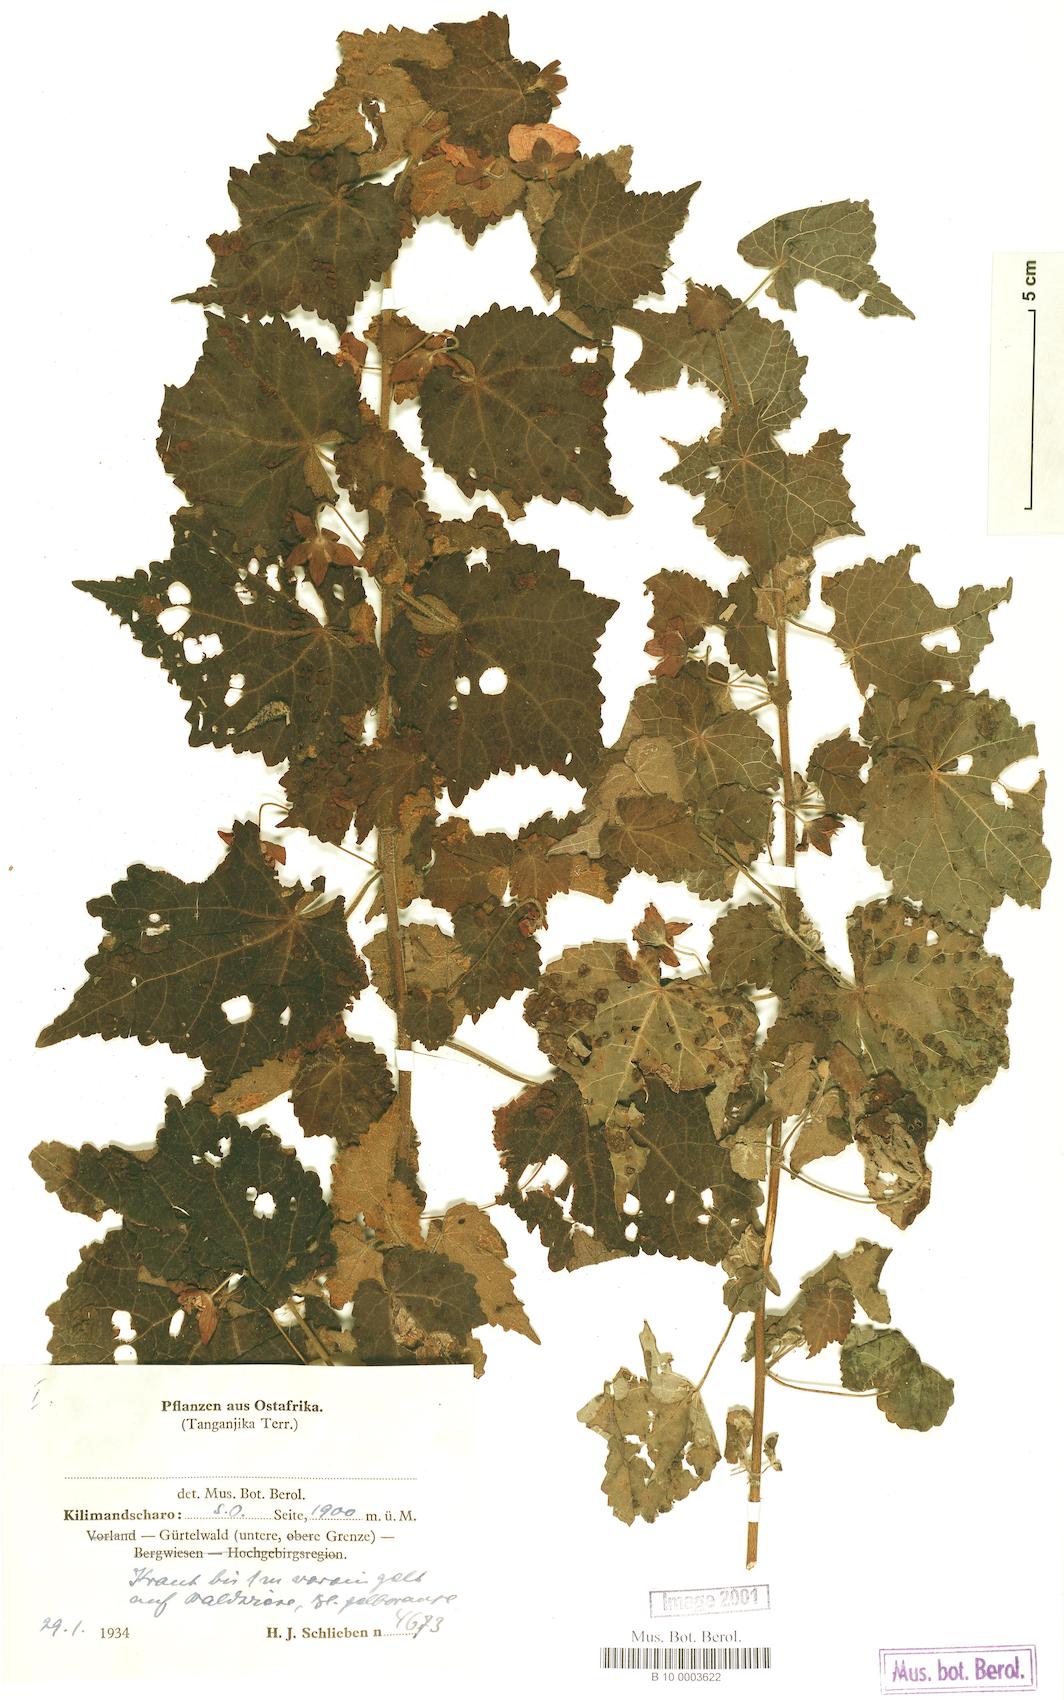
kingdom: Plantae
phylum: Tracheophyta
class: Magnoliopsida
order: Malvales
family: Malvaceae
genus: Pavonia
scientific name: Pavonia burchellii
